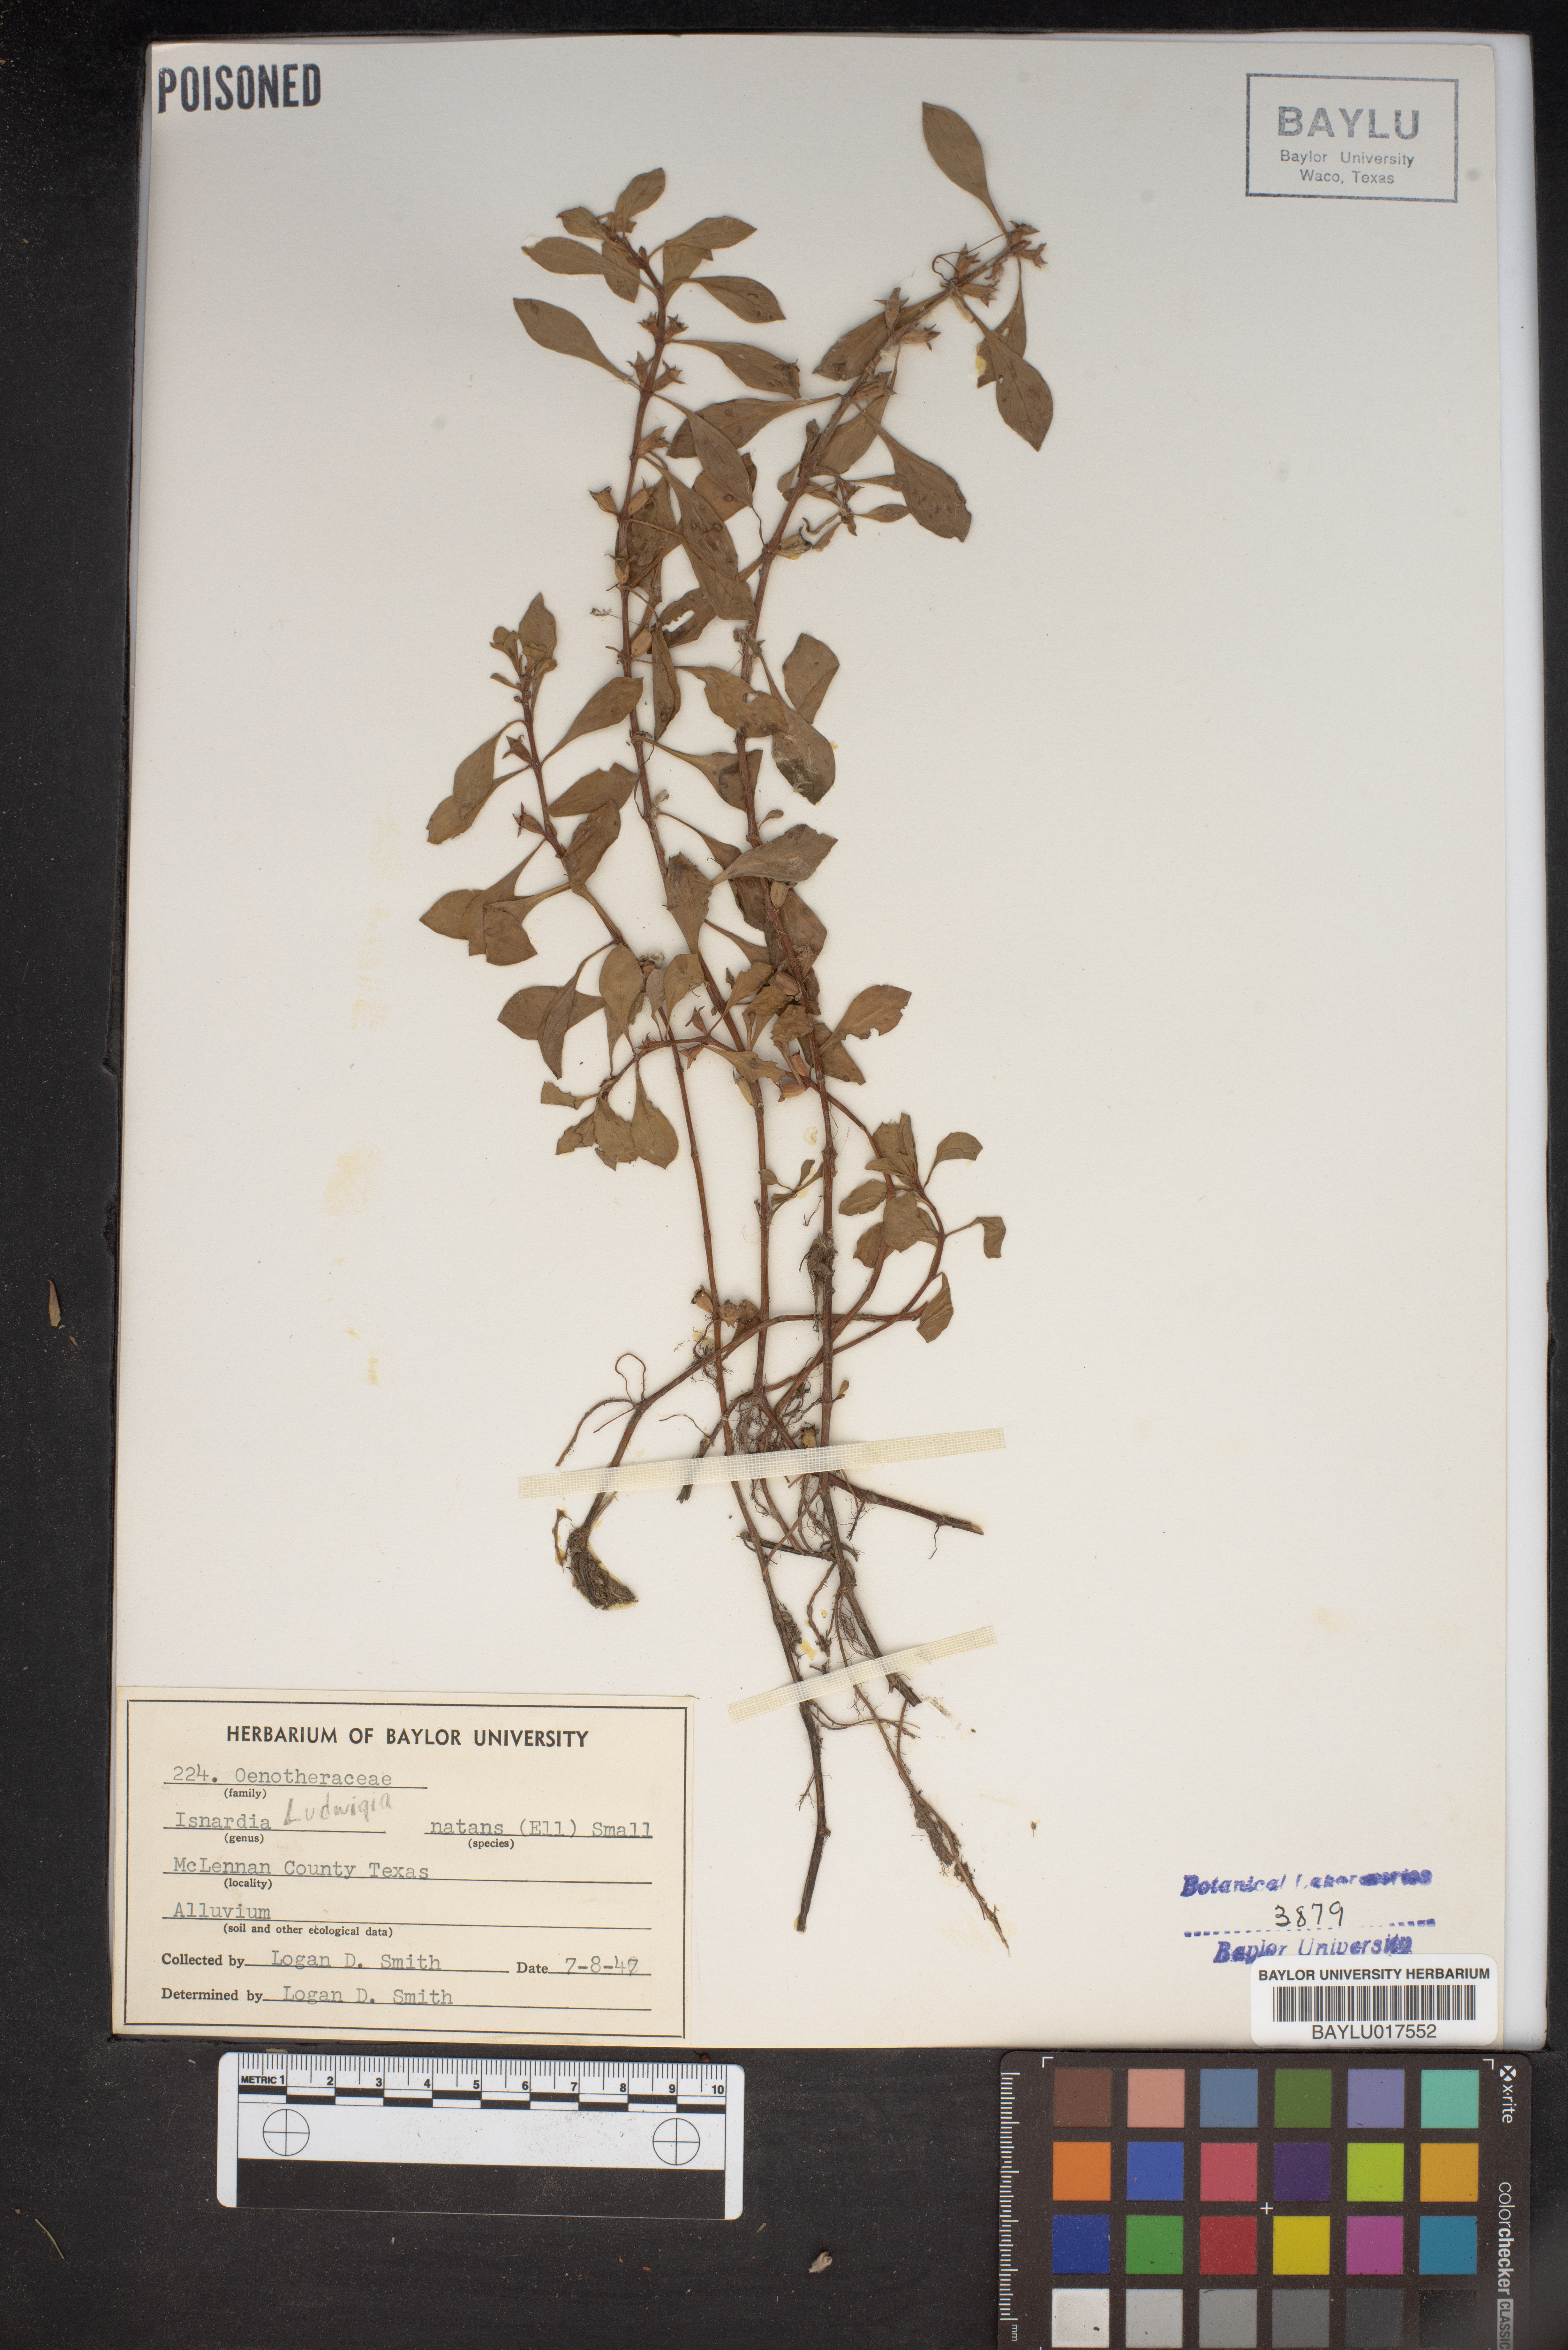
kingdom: Plantae
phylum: Tracheophyta
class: Magnoliopsida
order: Myrtales
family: Onagraceae
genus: Ludwigia
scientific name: Ludwigia repens
